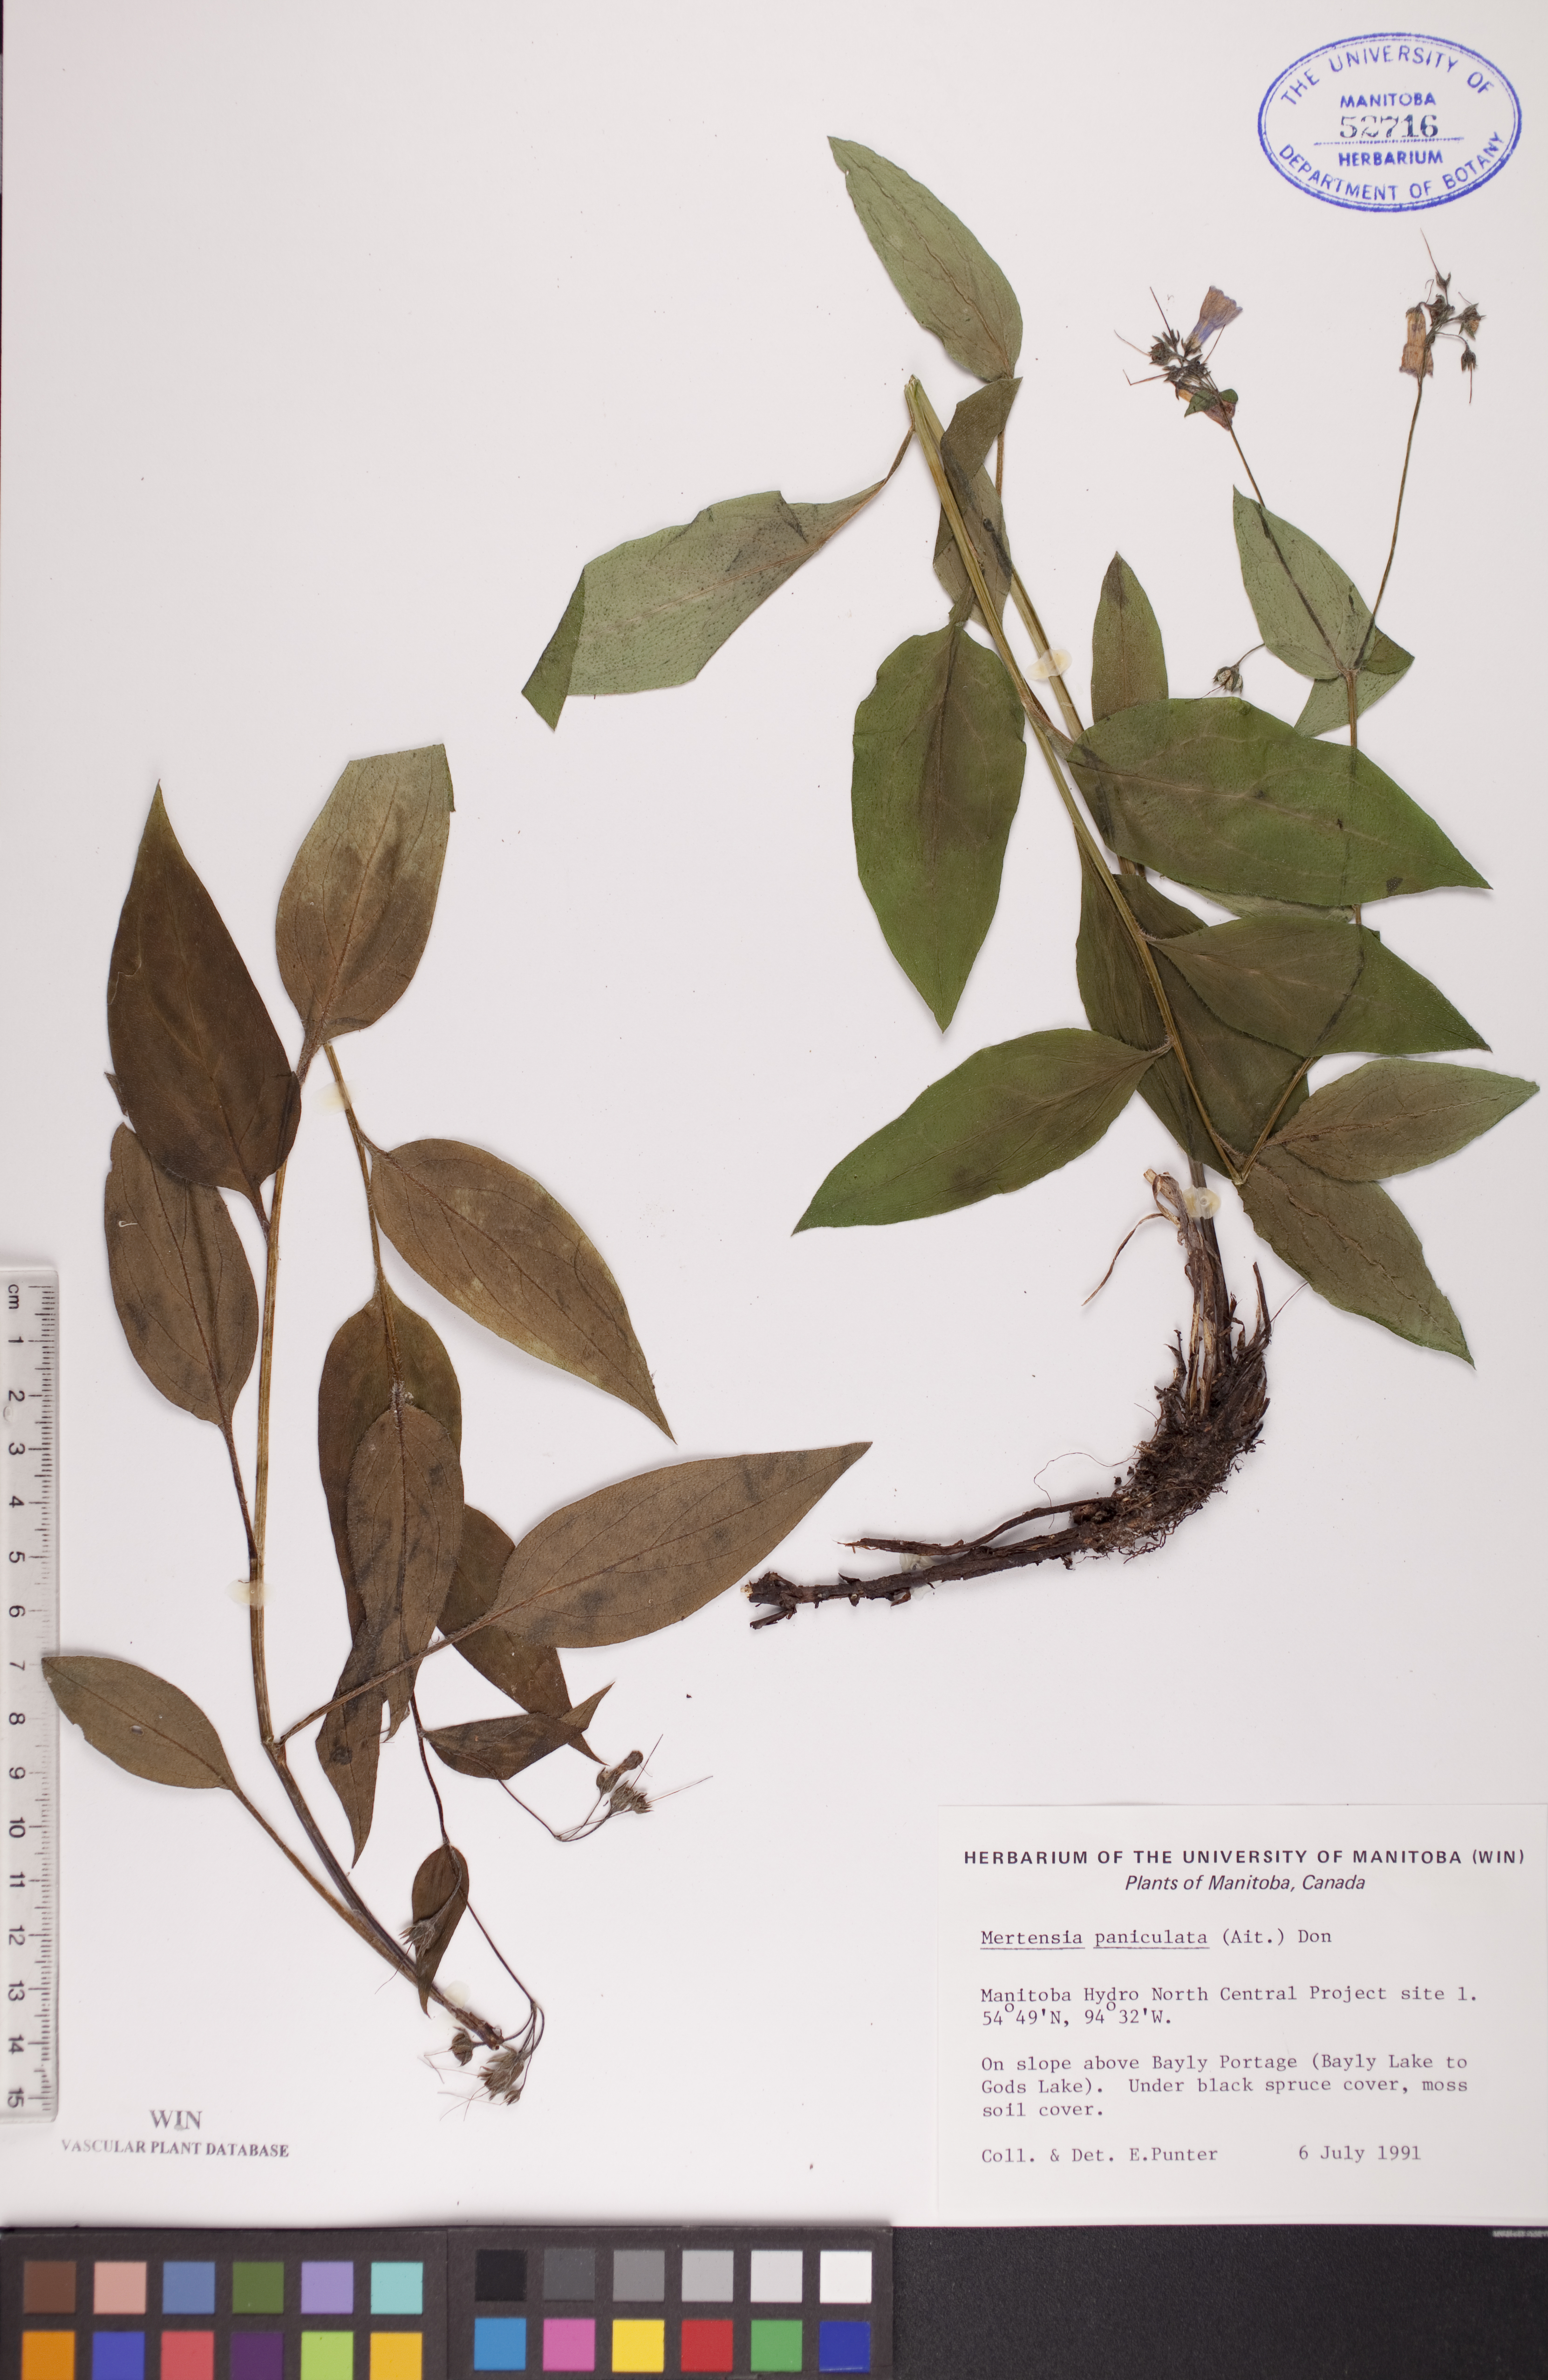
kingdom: Plantae
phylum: Tracheophyta
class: Magnoliopsida
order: Boraginales
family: Boraginaceae
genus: Mertensia
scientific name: Mertensia paniculata
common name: Panicled bluebells
